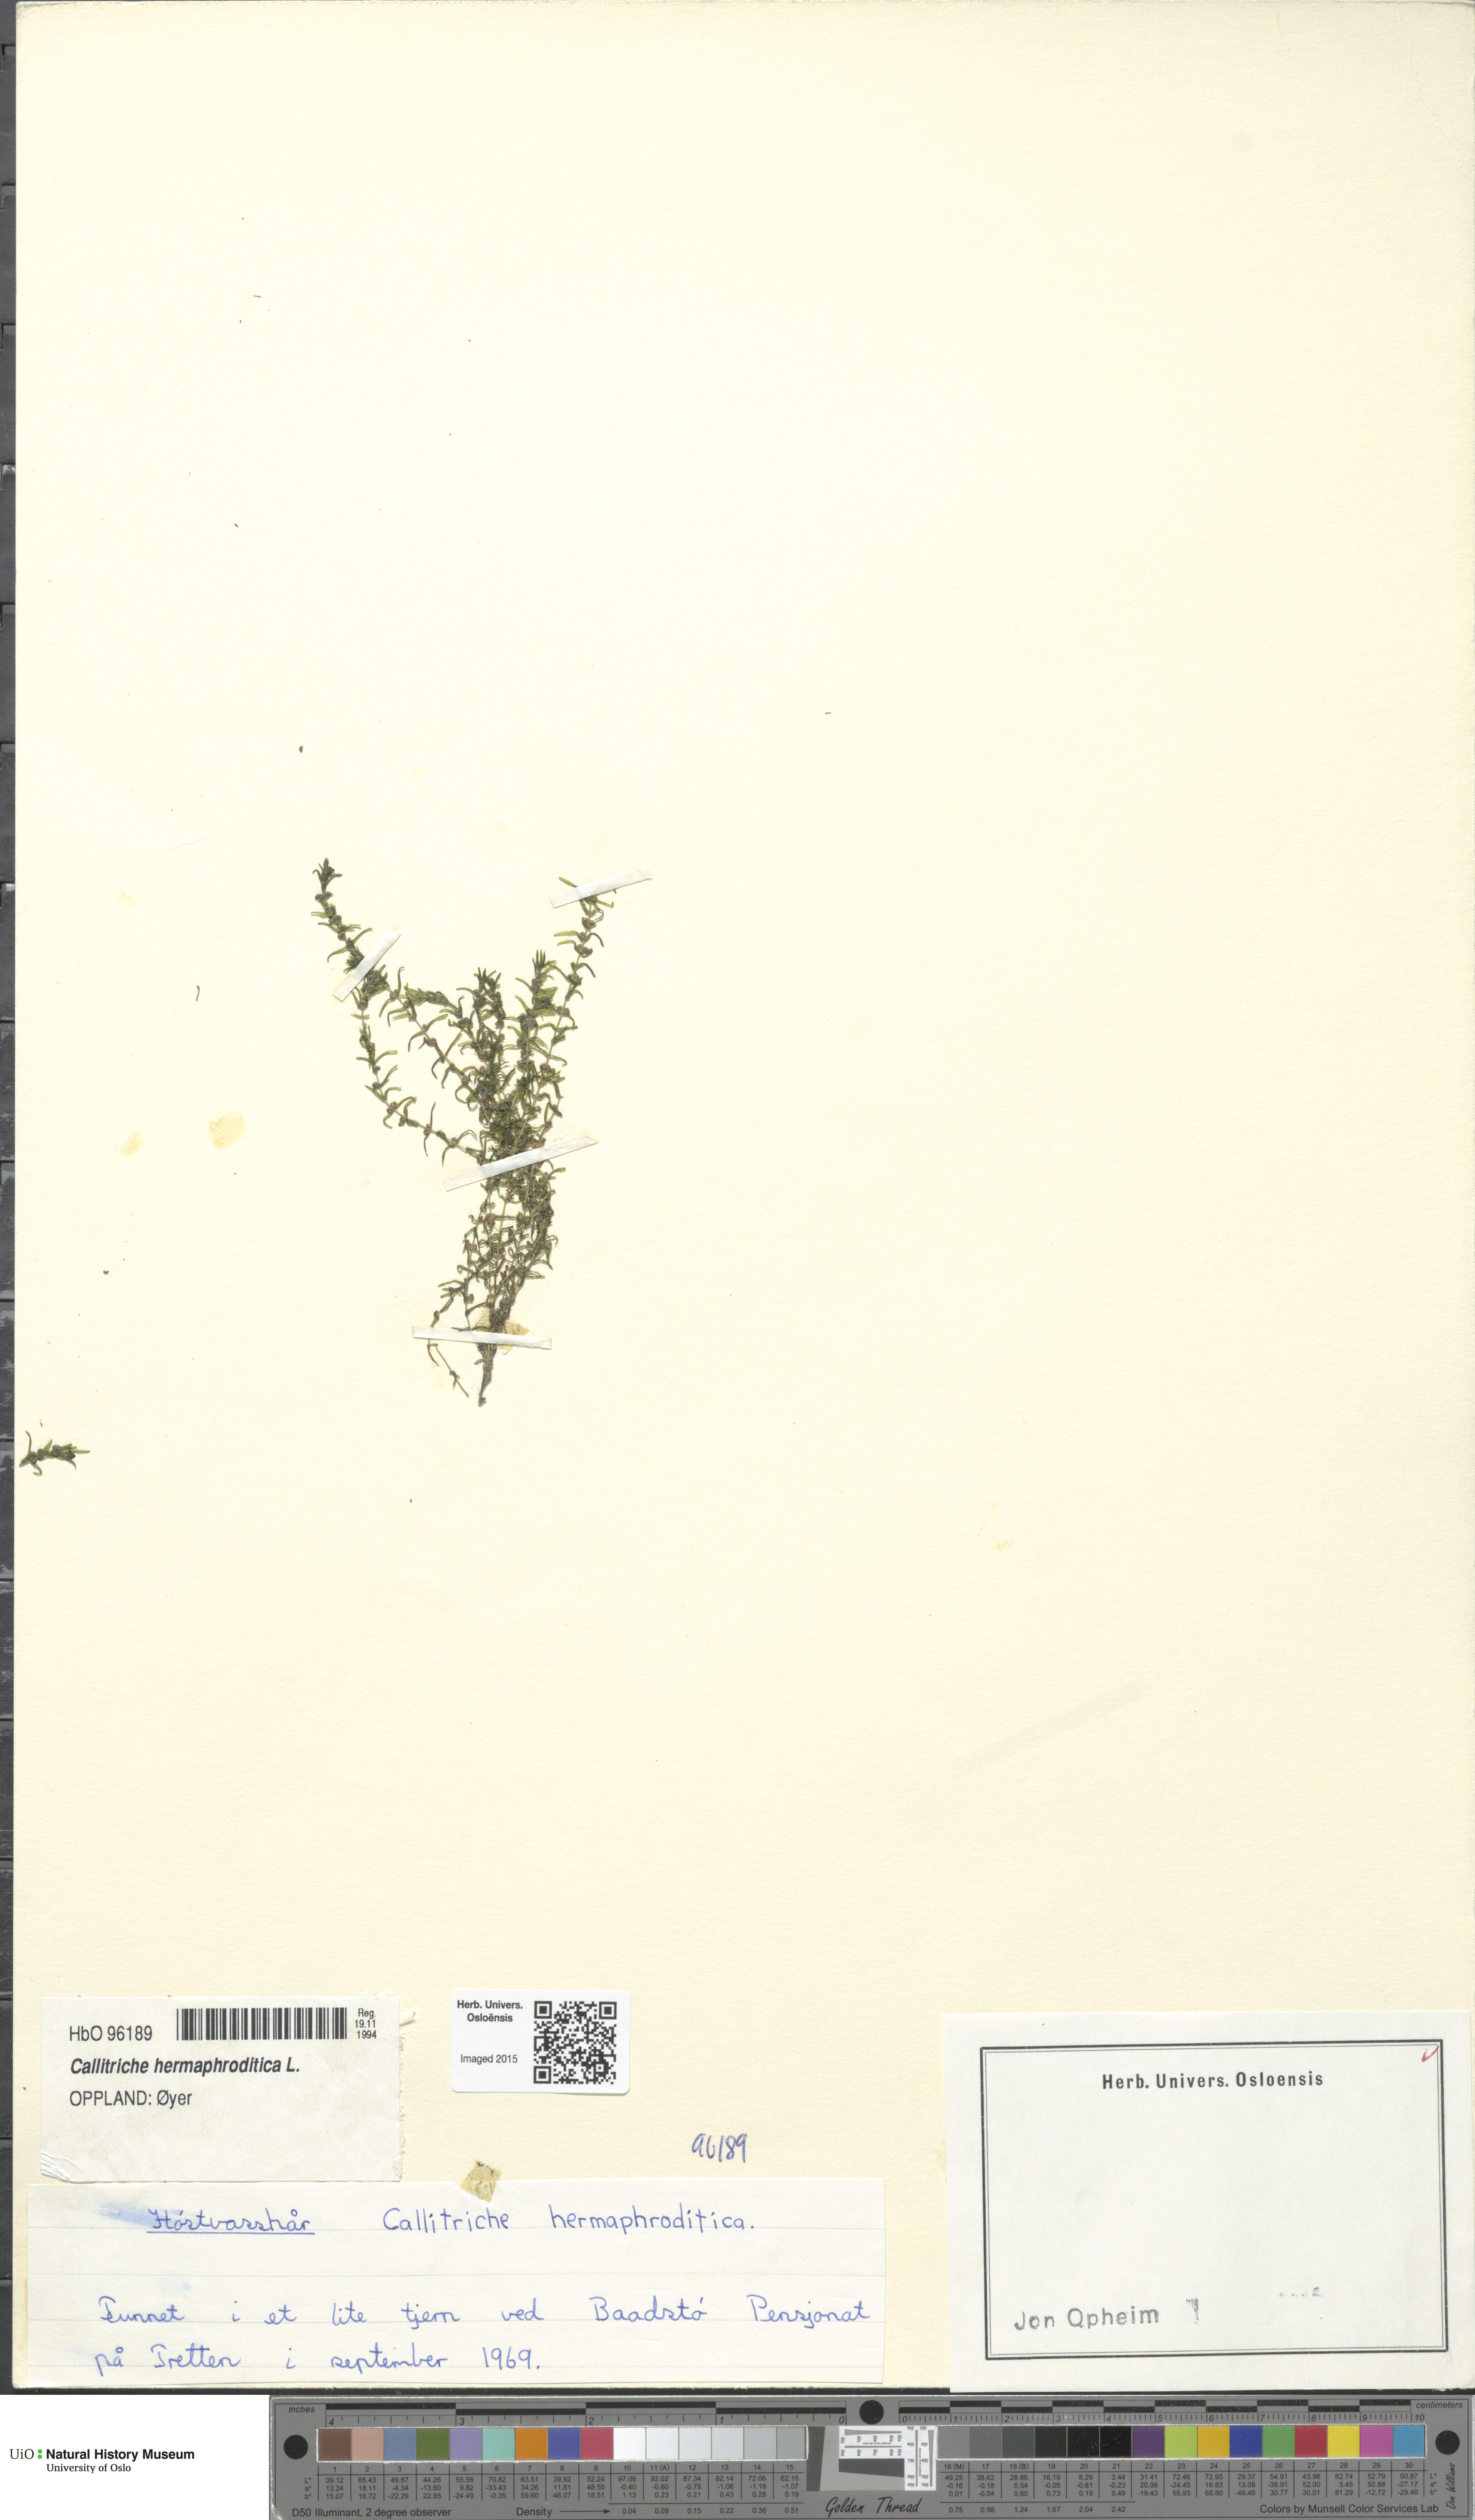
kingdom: Plantae
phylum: Tracheophyta
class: Magnoliopsida
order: Lamiales
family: Plantaginaceae
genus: Callitriche
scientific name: Callitriche hermaphroditica
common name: Autumnal water-starwort
